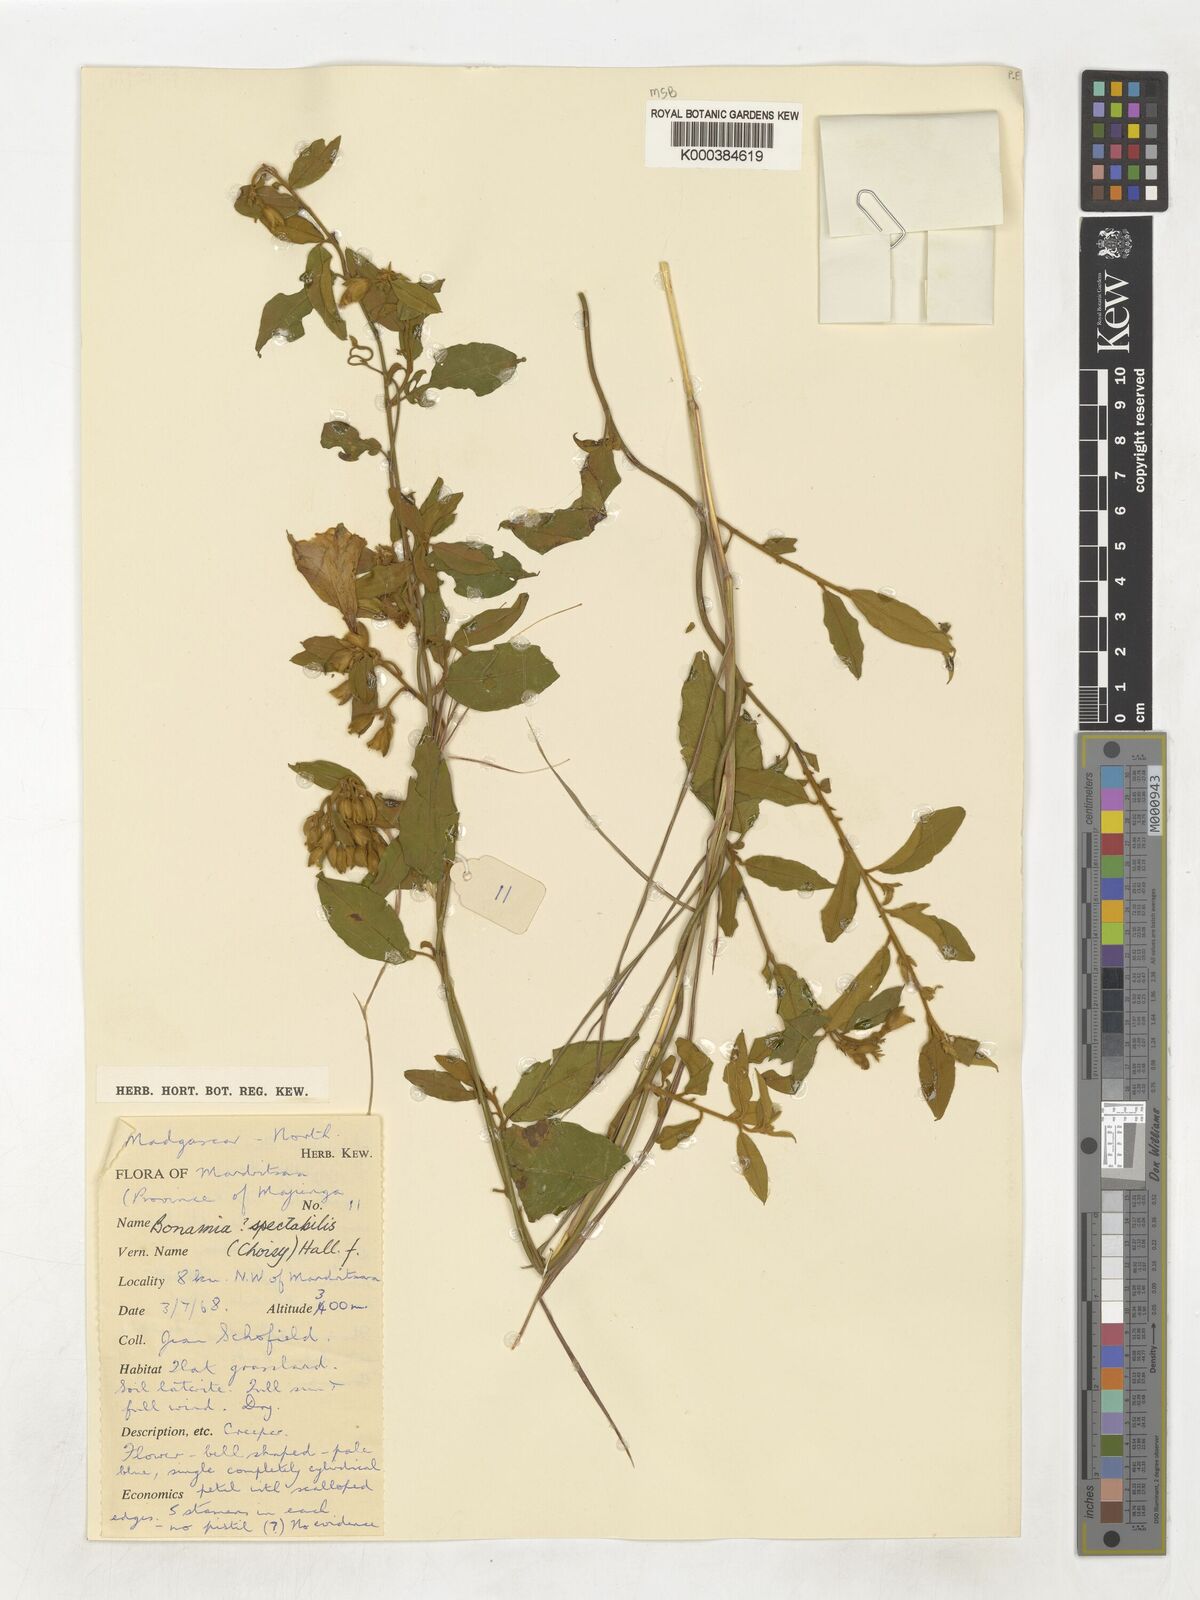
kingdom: Plantae
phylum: Tracheophyta
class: Magnoliopsida
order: Solanales
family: Convolvulaceae
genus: Bonamia
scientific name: Bonamia spectabilis
